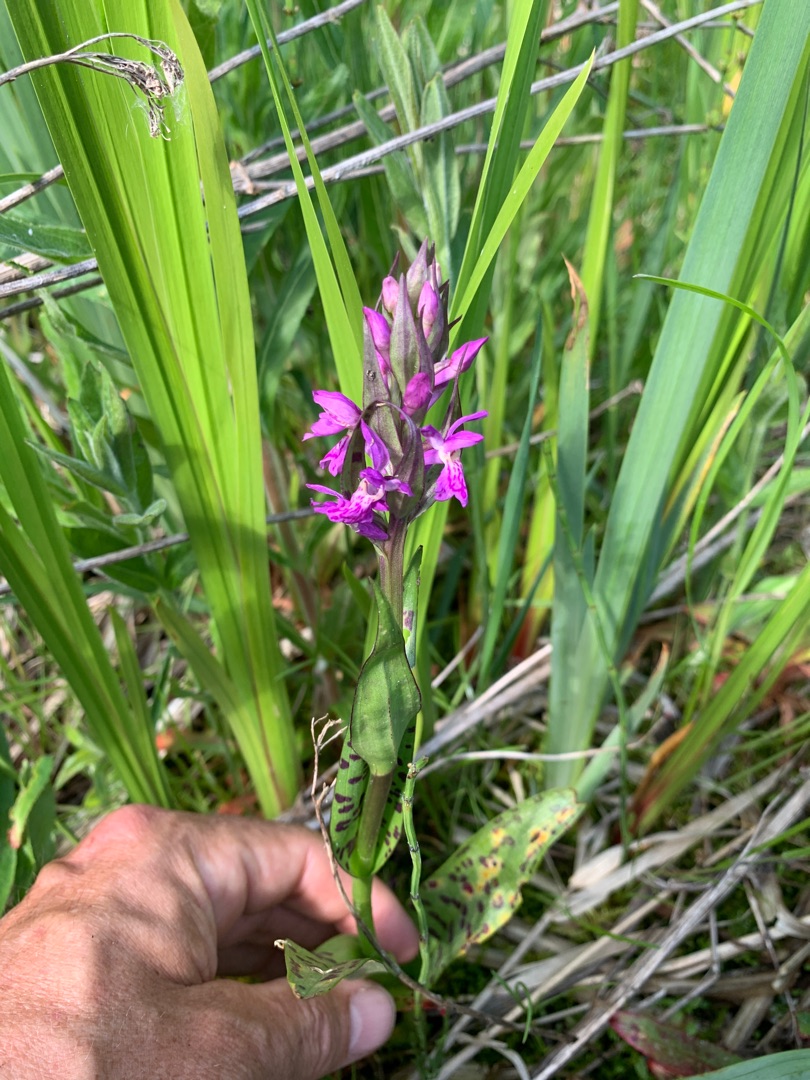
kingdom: Plantae
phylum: Tracheophyta
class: Liliopsida
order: Asparagales
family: Orchidaceae
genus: Dactylorhiza
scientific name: Dactylorhiza majalis
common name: Maj-gøgeurt
